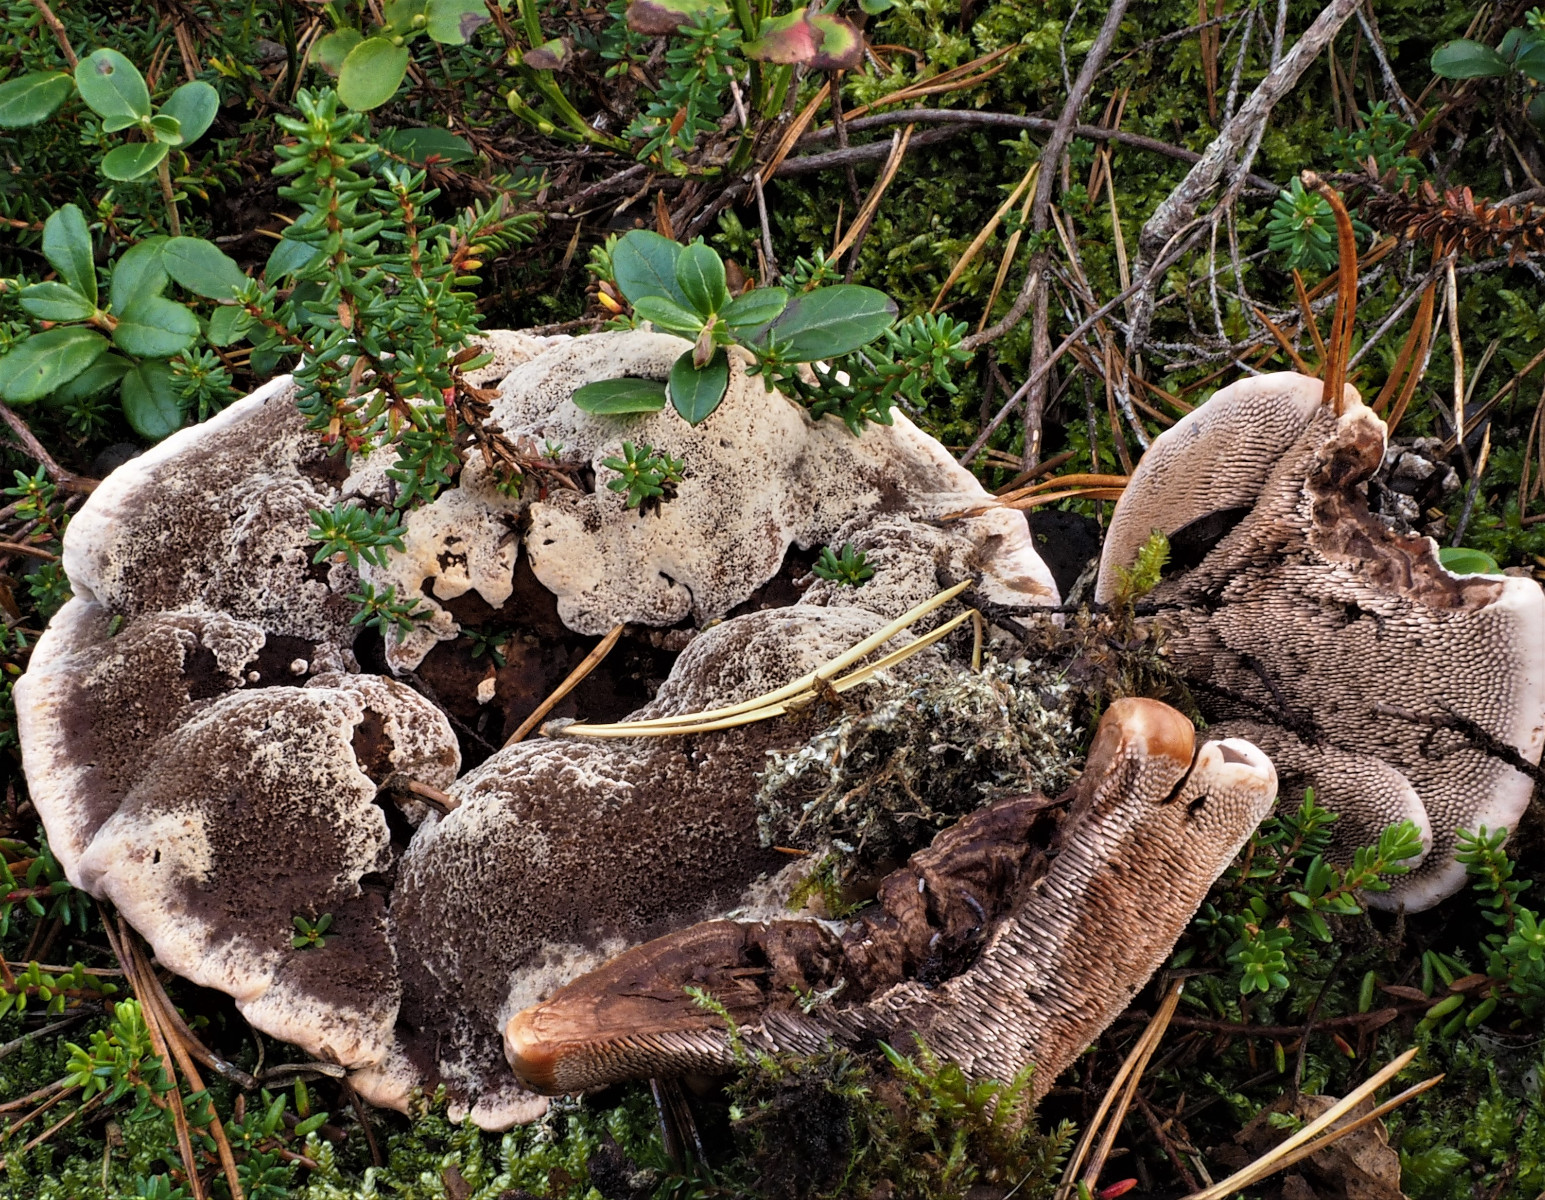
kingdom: Fungi
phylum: Basidiomycota
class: Agaricomycetes
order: Thelephorales
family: Bankeraceae
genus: Hydnellum
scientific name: Hydnellum ferrugineum
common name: rust-korkpigsvamp
